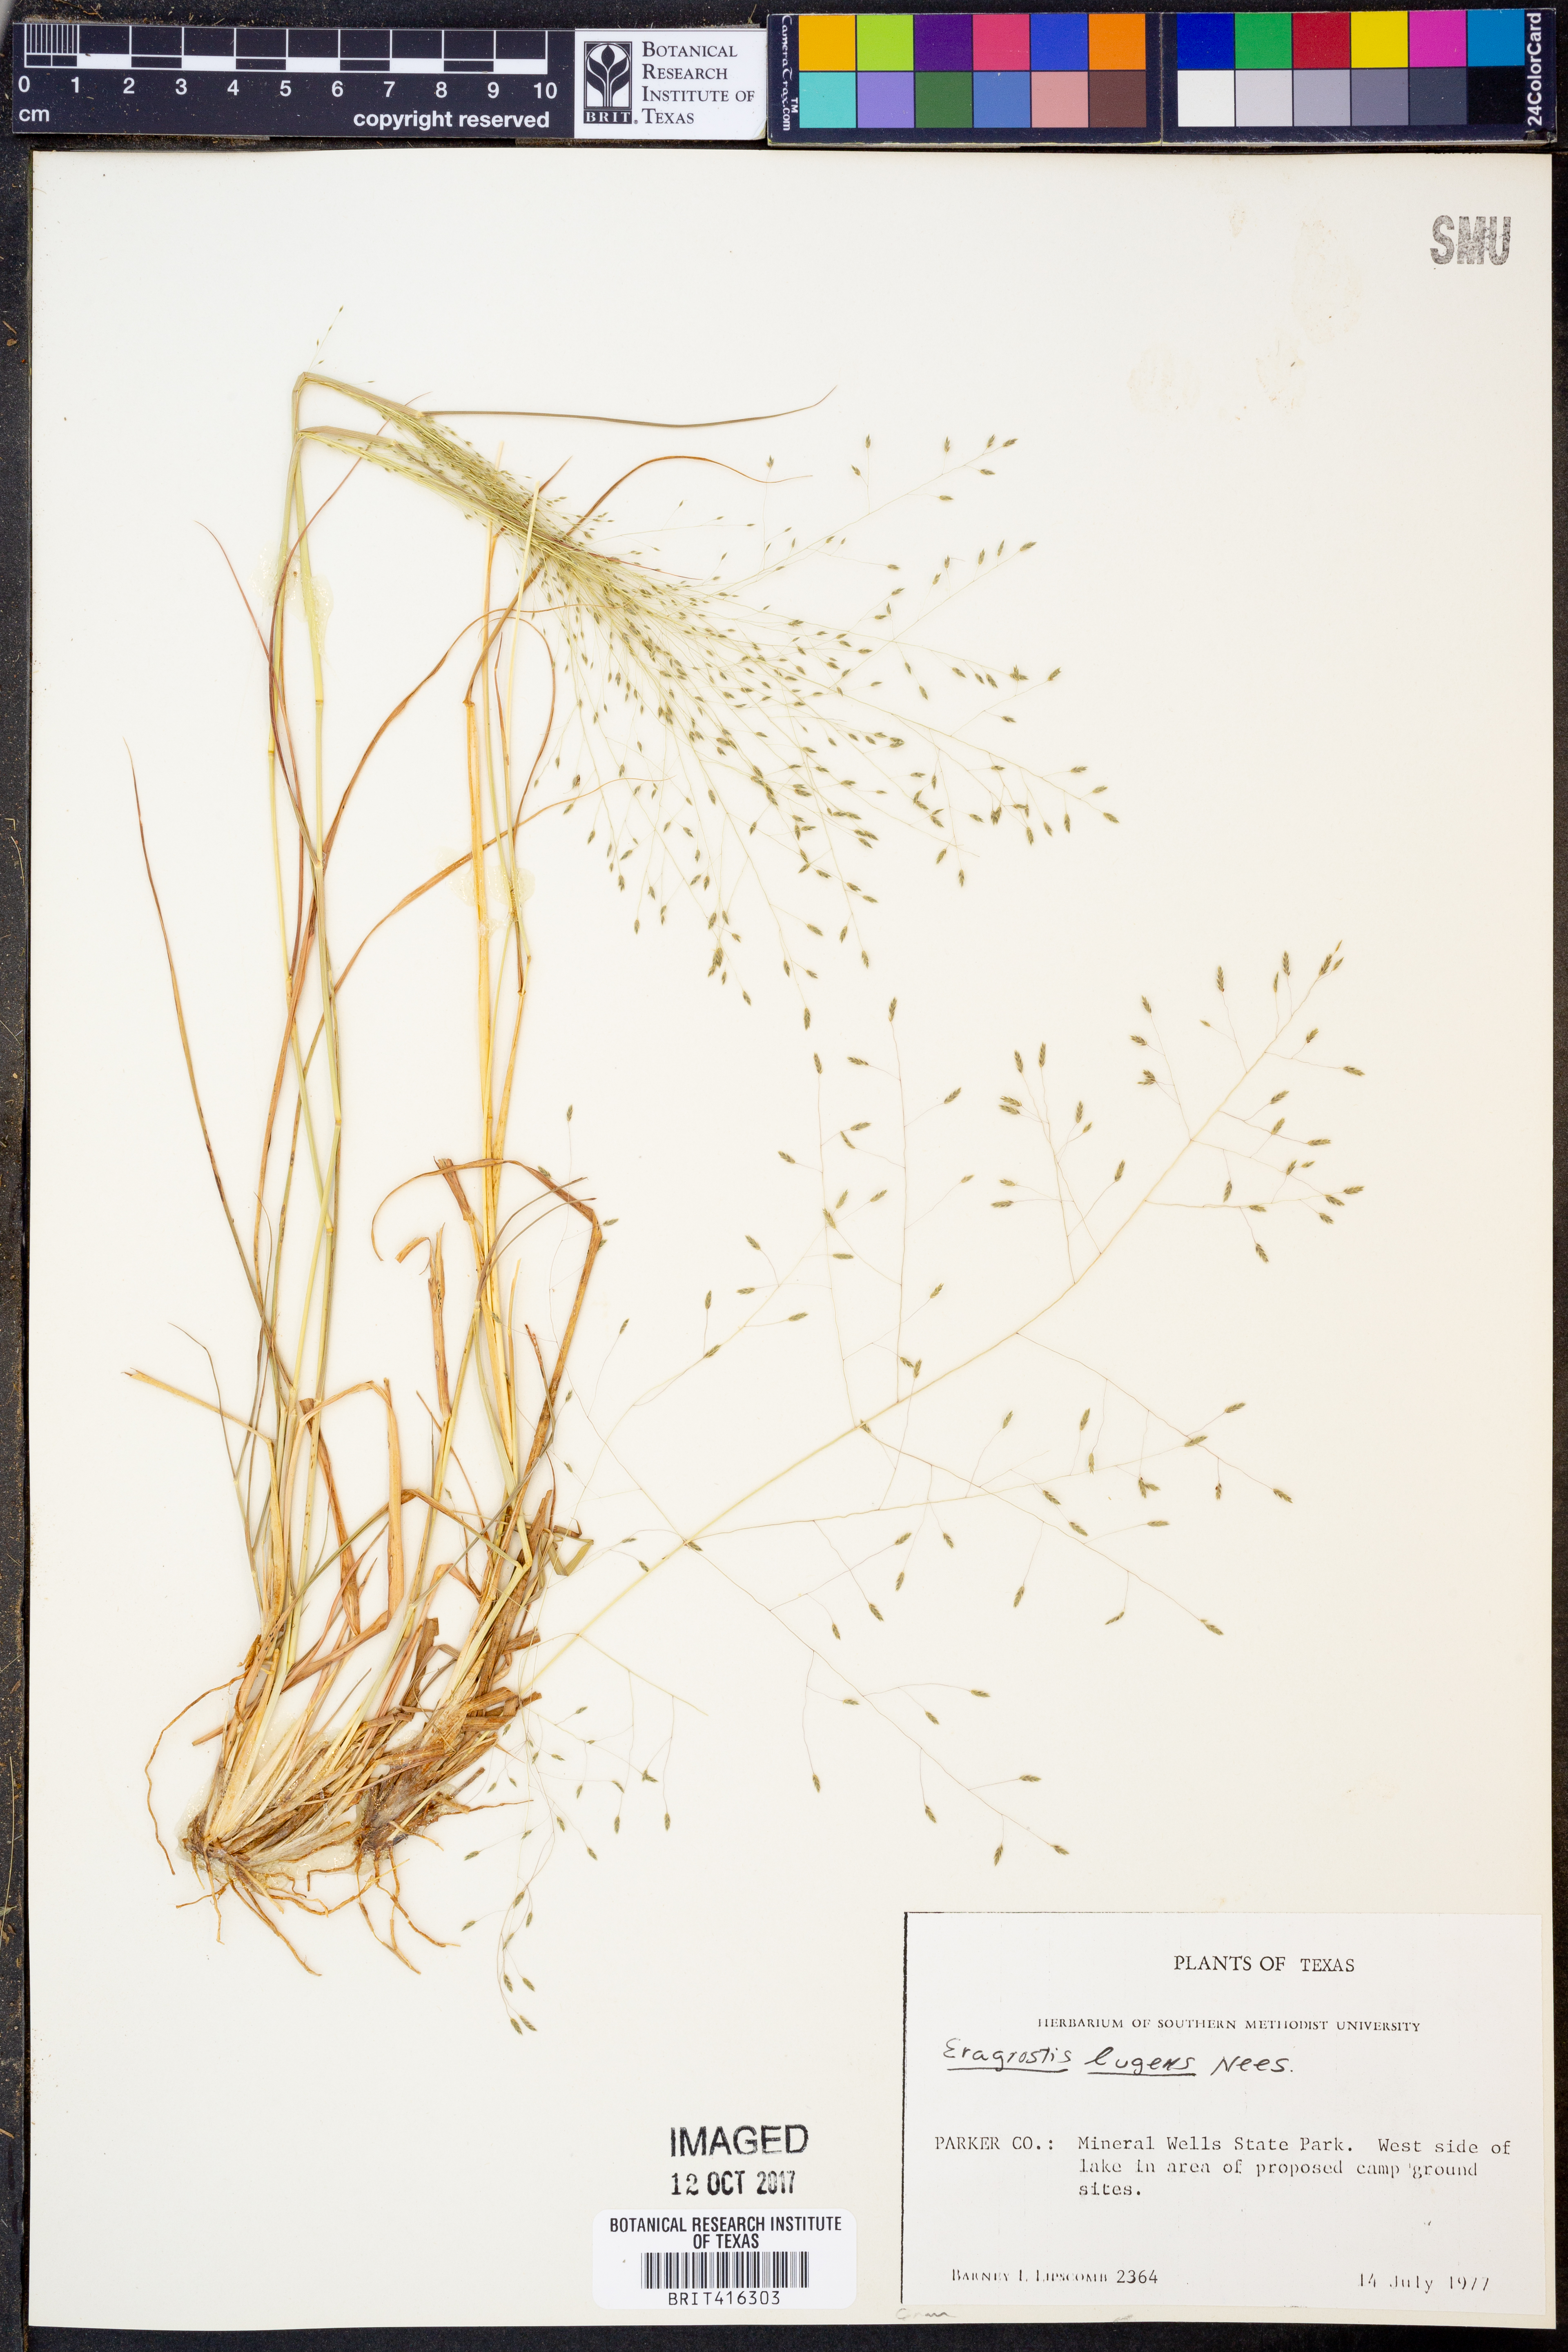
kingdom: Plantae
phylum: Tracheophyta
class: Liliopsida
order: Poales
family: Poaceae
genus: Eragrostis
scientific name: Eragrostis capillaris
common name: Hair-like lovegrass
